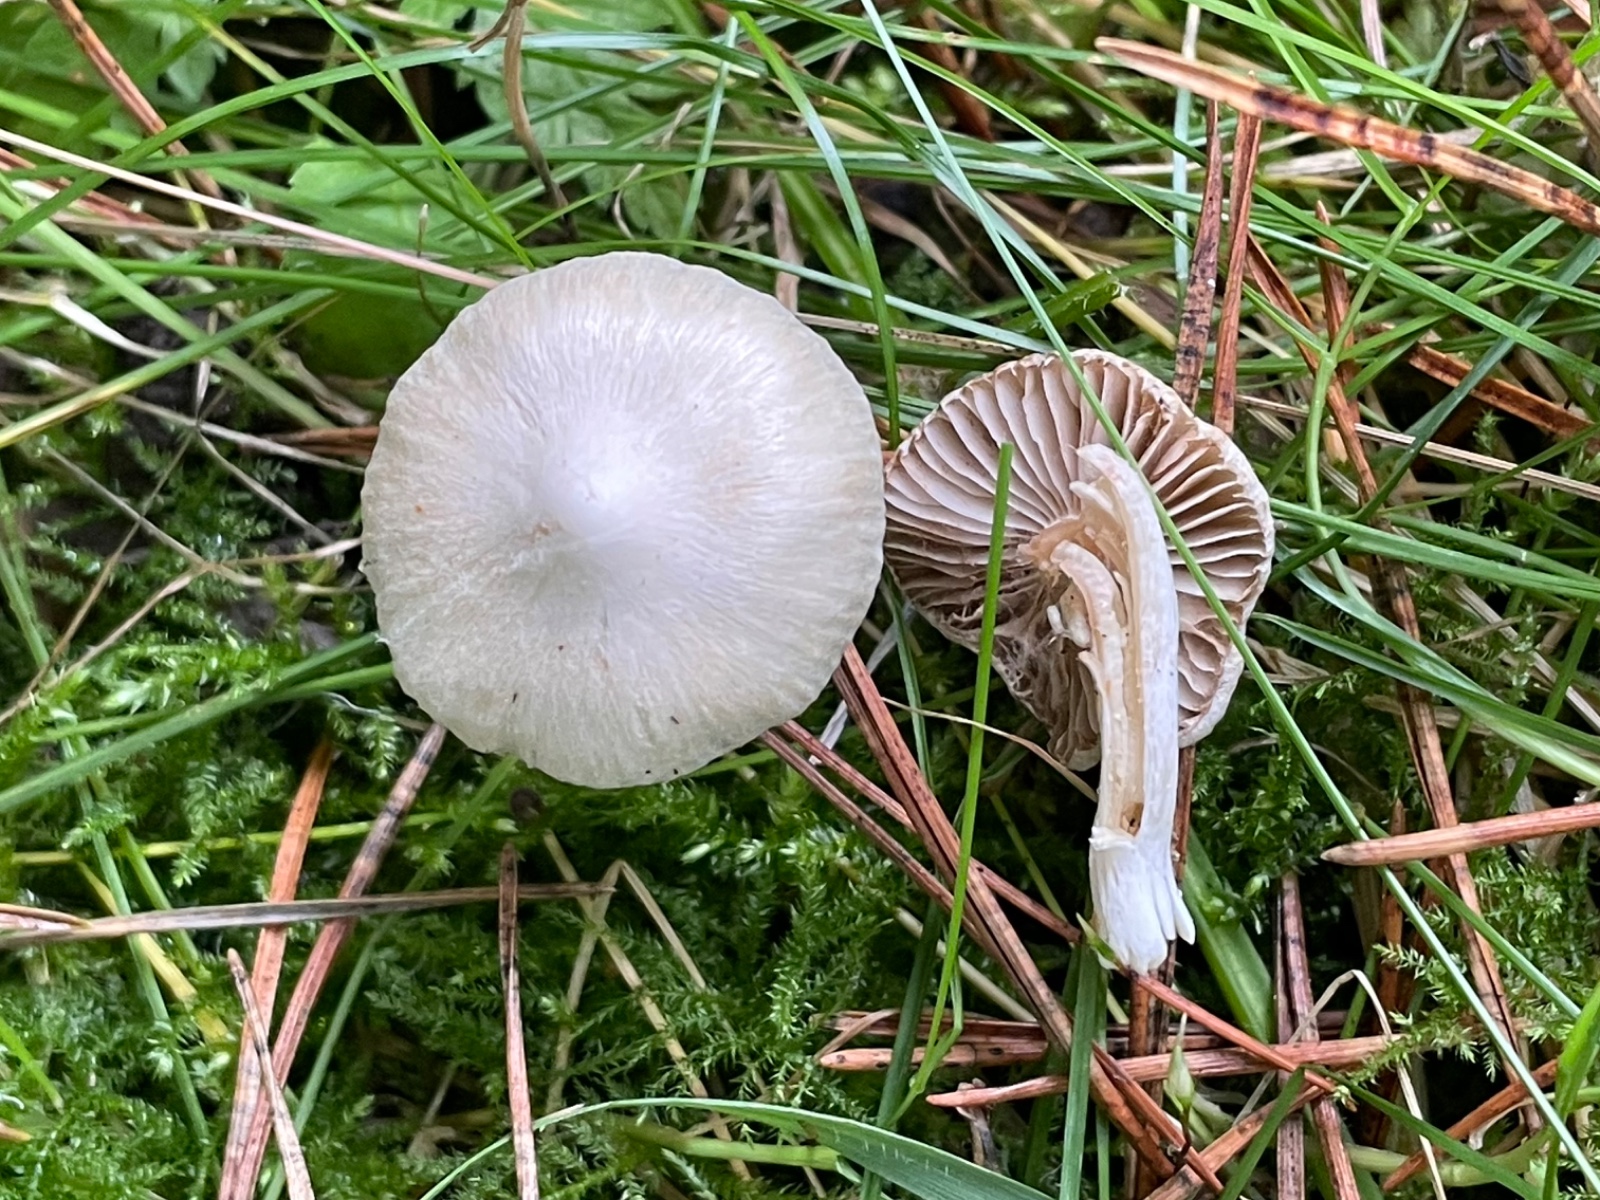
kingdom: Fungi
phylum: Basidiomycota
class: Agaricomycetes
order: Agaricales
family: Inocybaceae
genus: Inocybe
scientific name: Inocybe
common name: almindelig trævlhat
